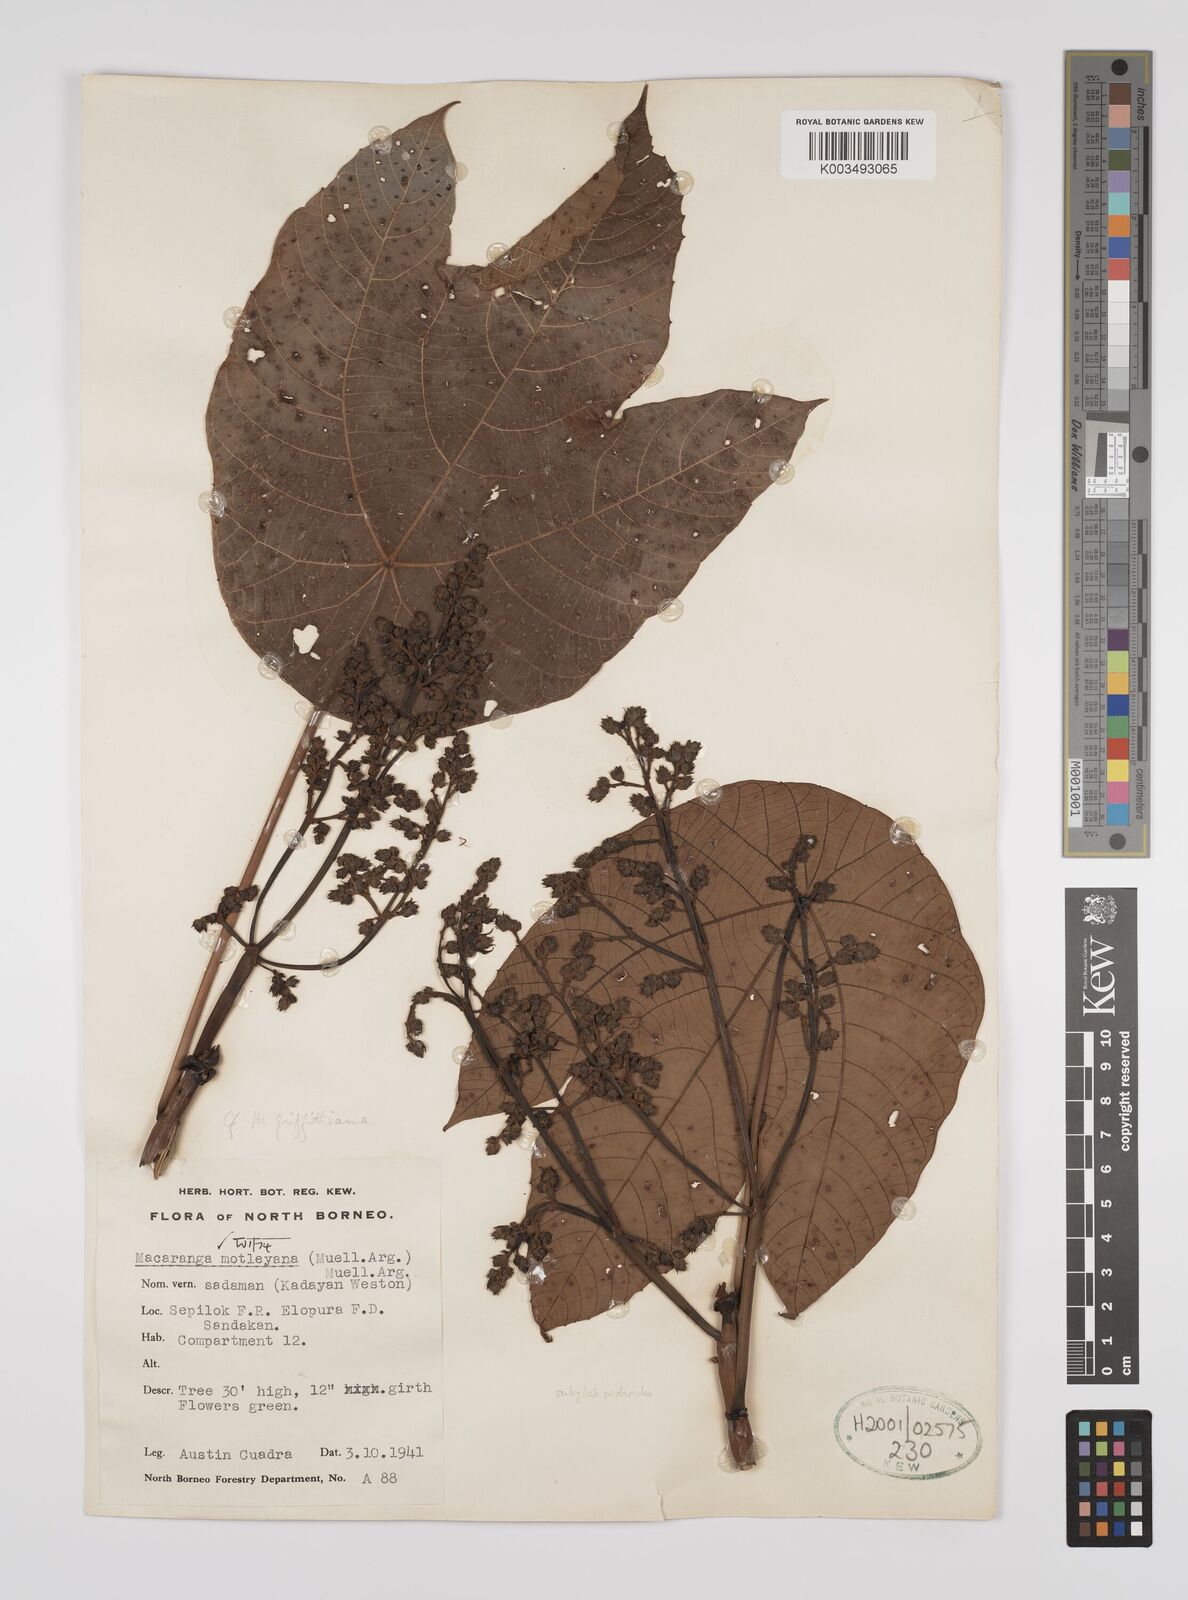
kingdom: Plantae
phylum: Tracheophyta
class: Magnoliopsida
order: Malpighiales
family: Euphorbiaceae
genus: Macaranga
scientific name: Macaranga motleyana
